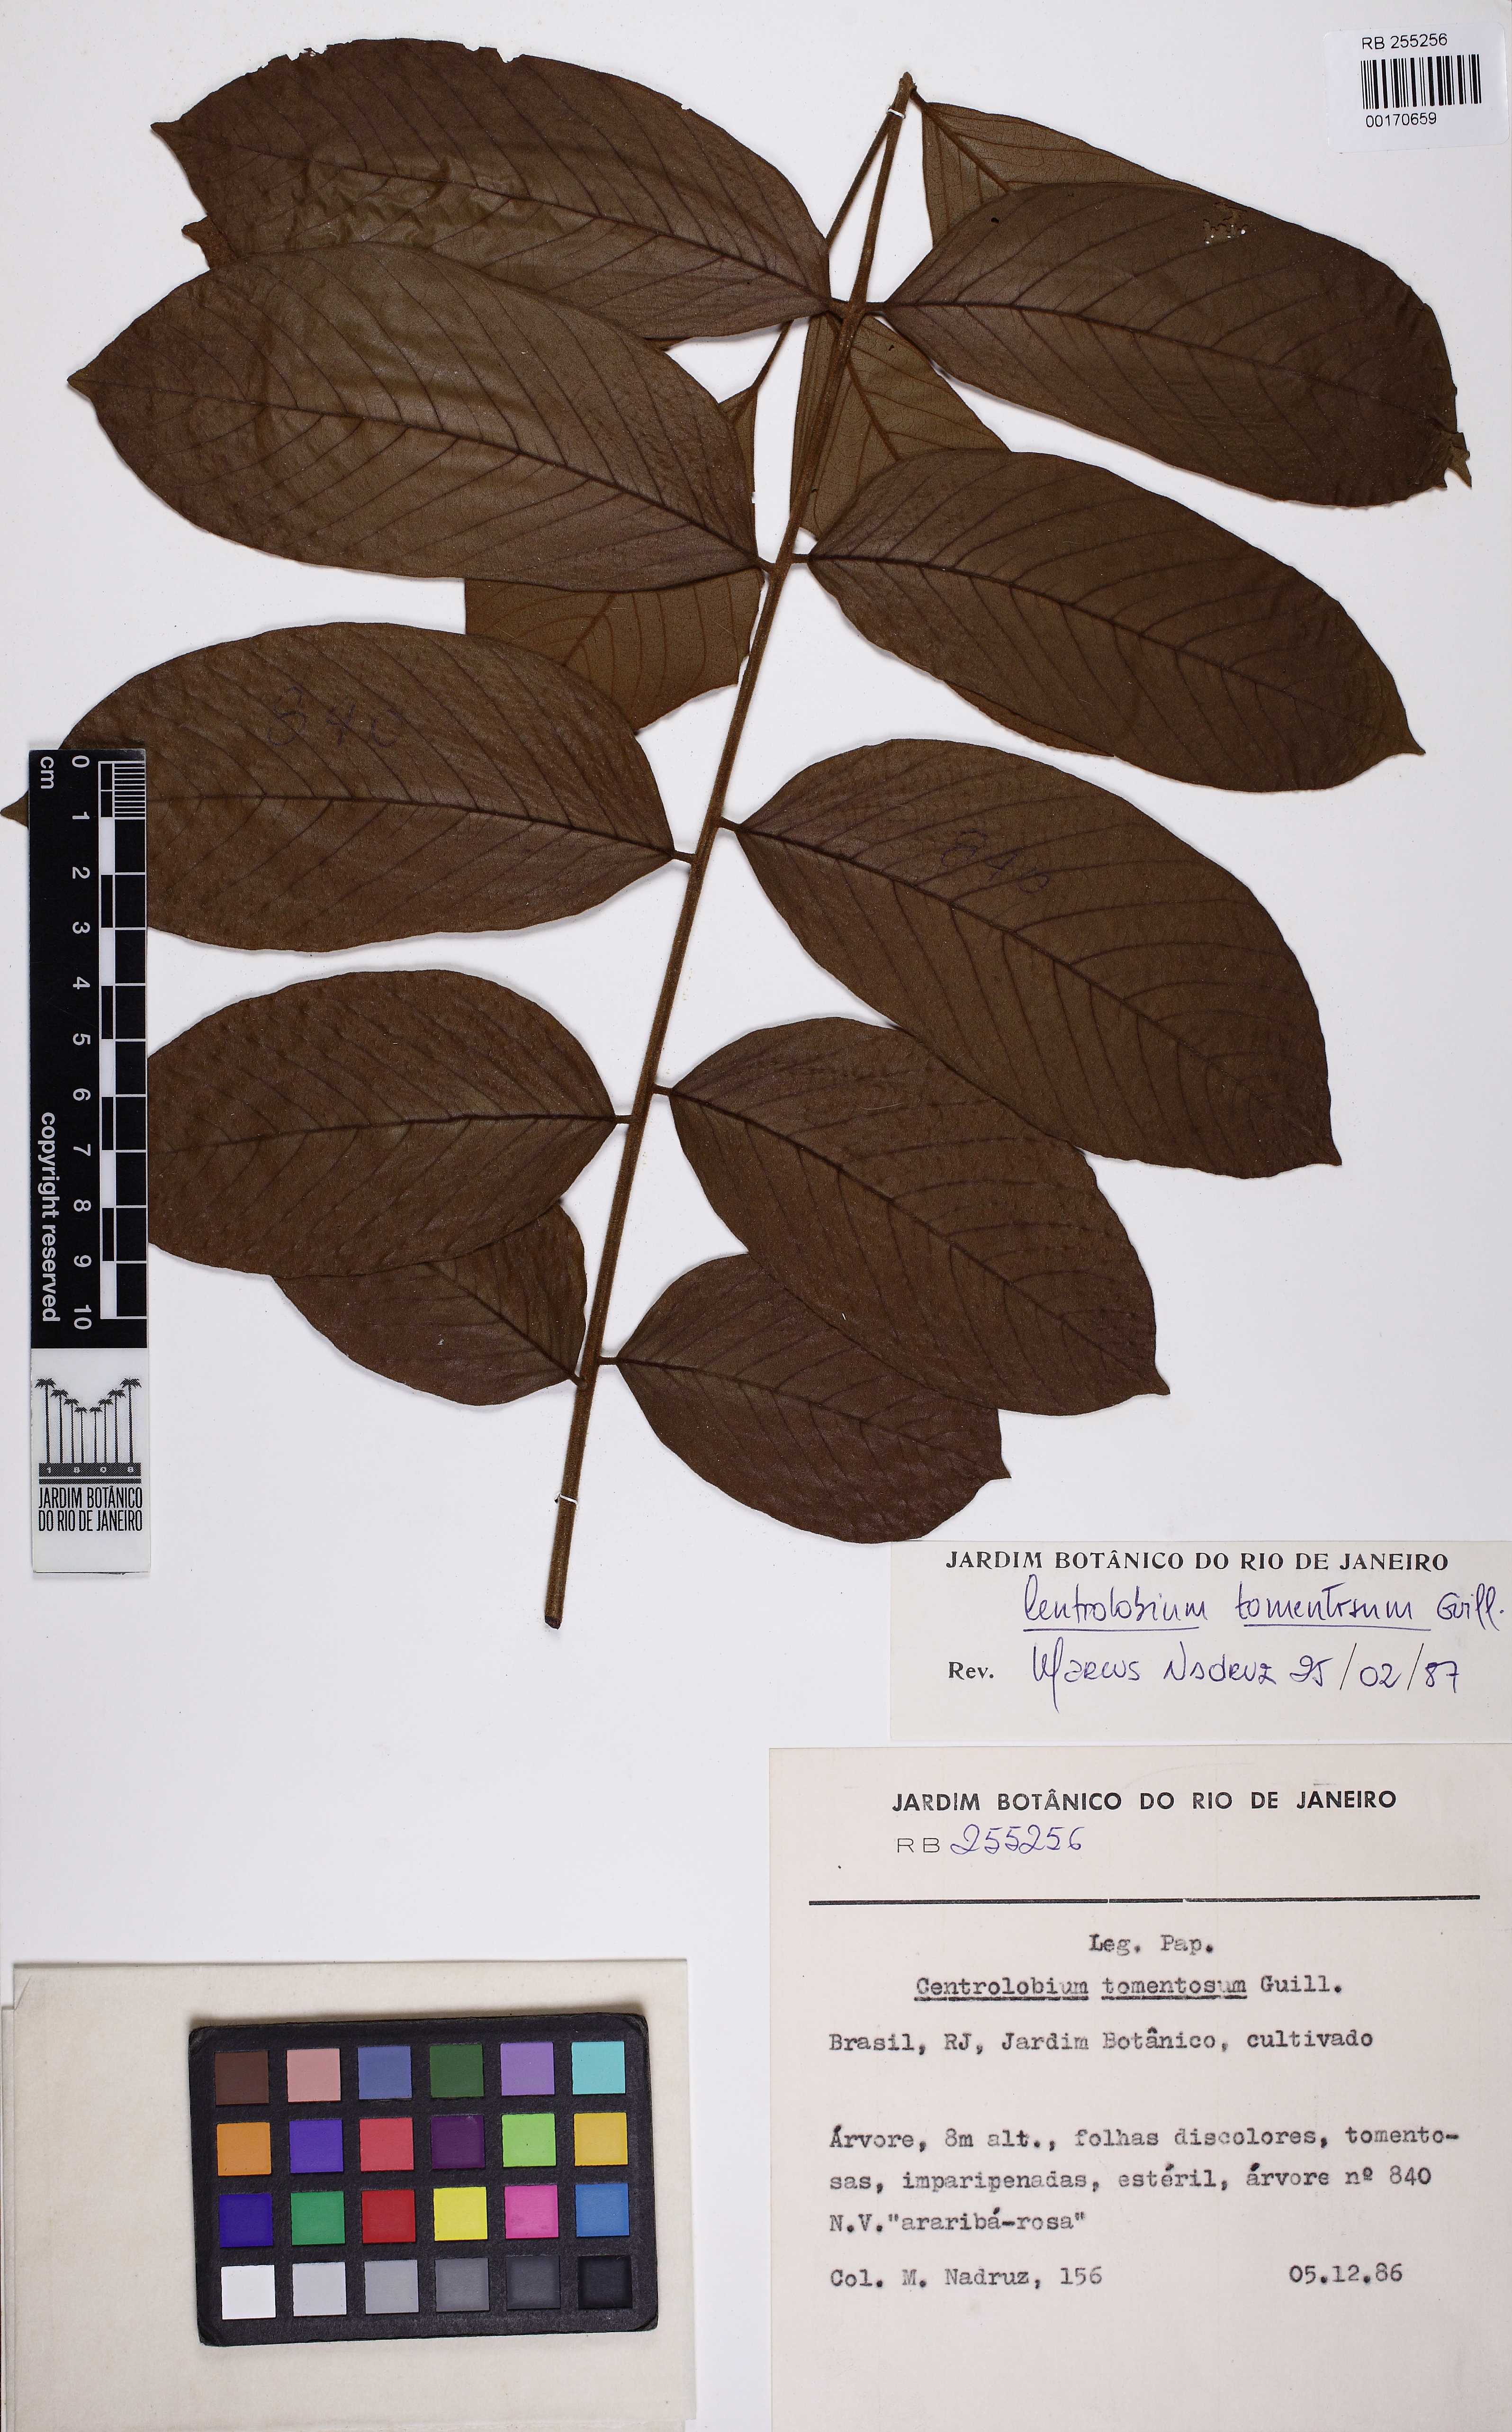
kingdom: Plantae
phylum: Tracheophyta
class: Magnoliopsida
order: Fabales
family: Fabaceae
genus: Centrolobium
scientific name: Centrolobium tomentosum
